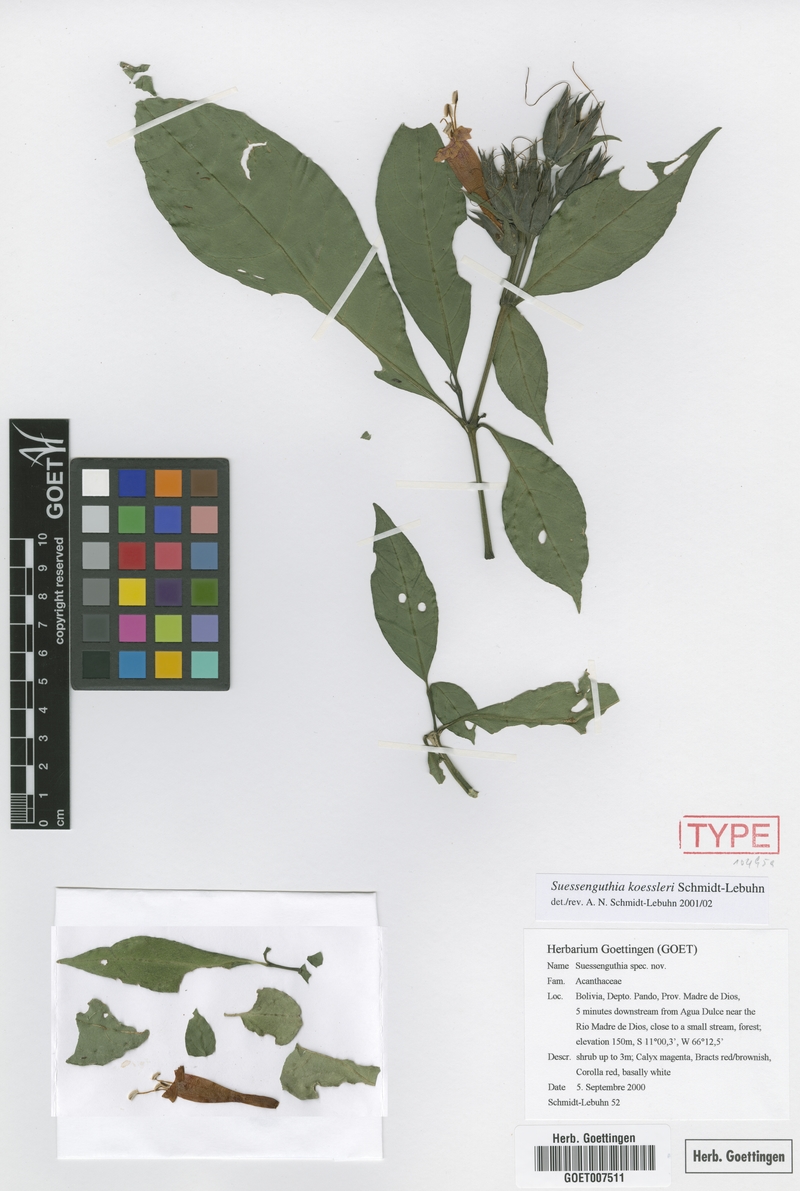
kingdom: Plantae
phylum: Tracheophyta
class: Magnoliopsida
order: Lamiales
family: Acanthaceae
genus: Suessenguthia
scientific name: Suessenguthia koessleri
